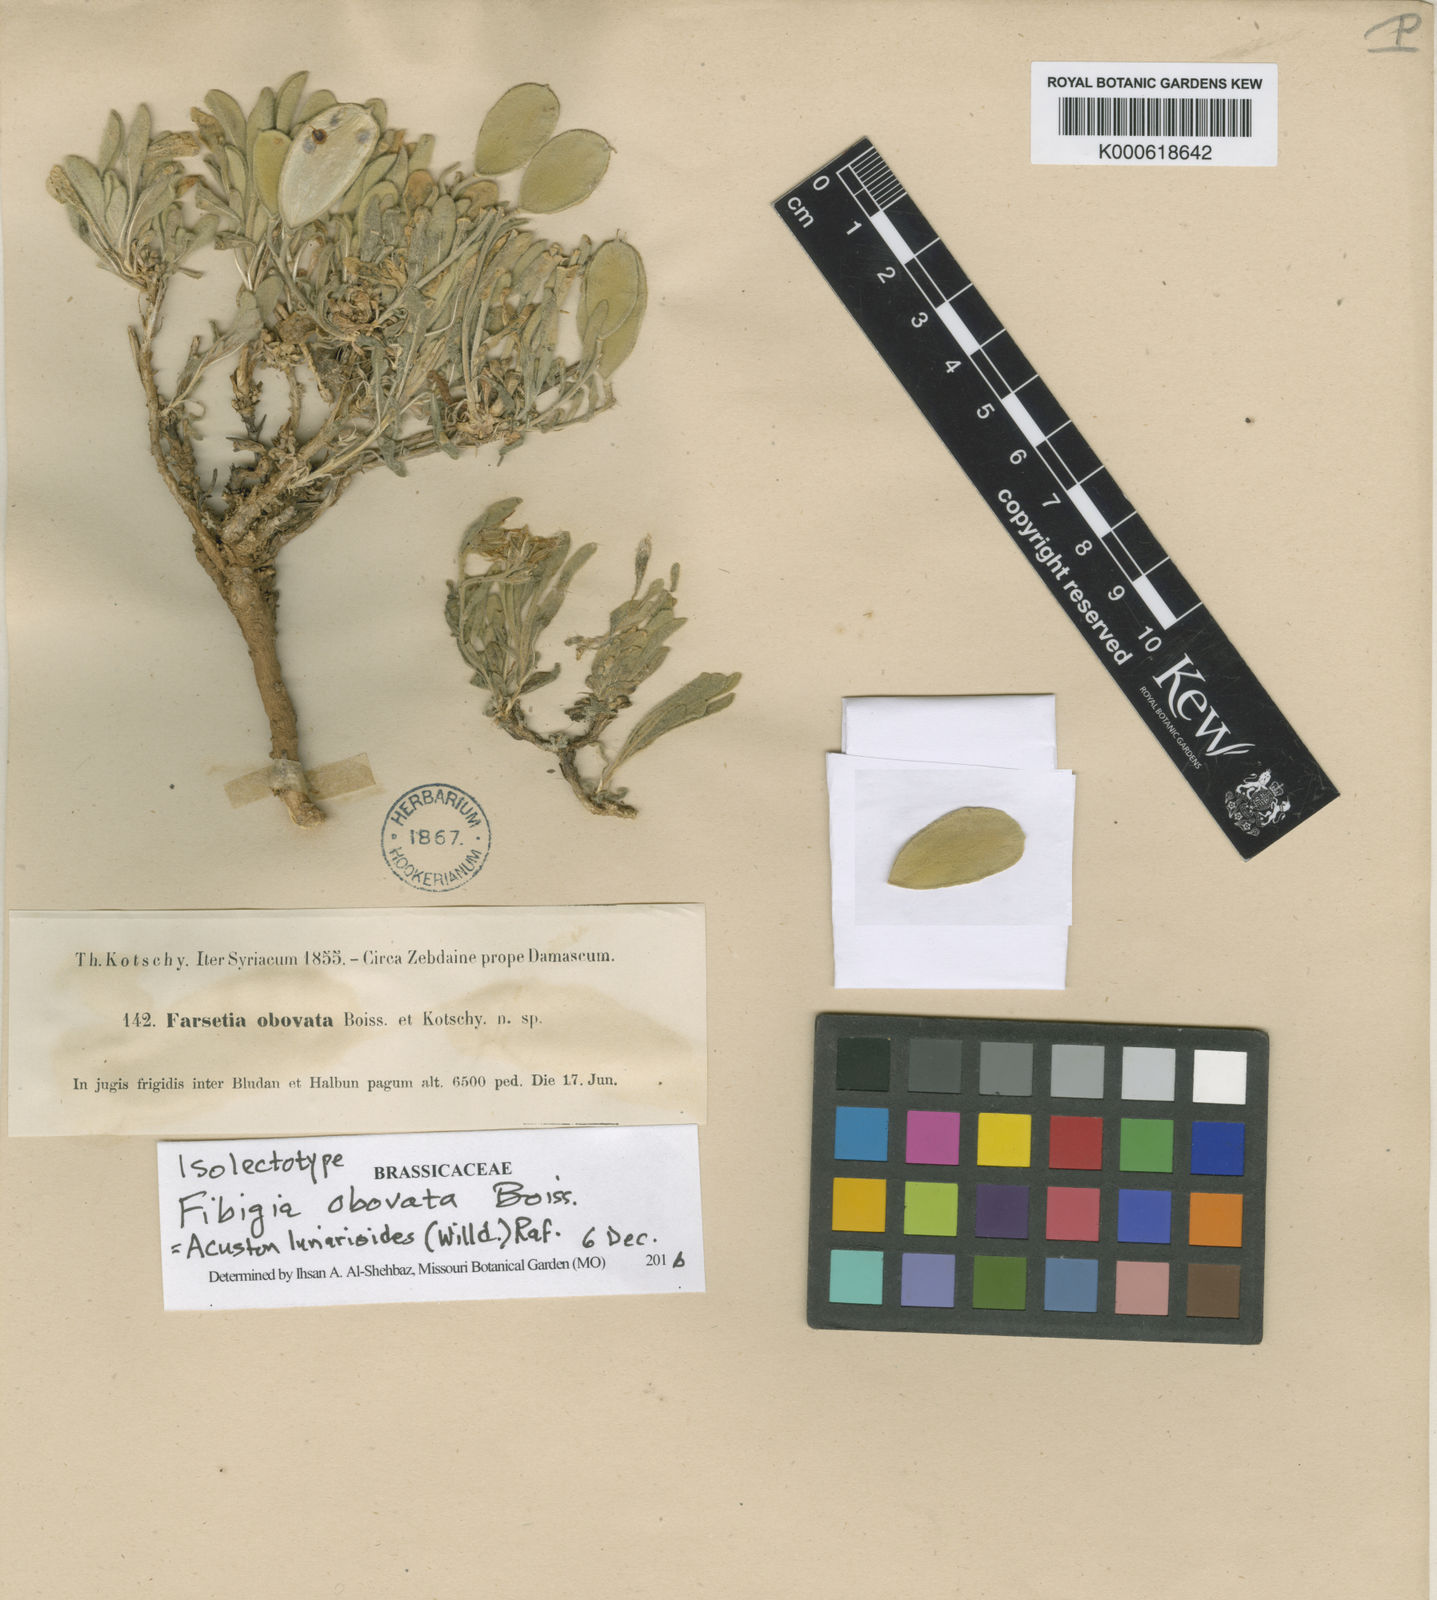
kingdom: Plantae
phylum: Tracheophyta
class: Magnoliopsida
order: Brassicales
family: Brassicaceae
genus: Acuston
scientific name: Acuston
